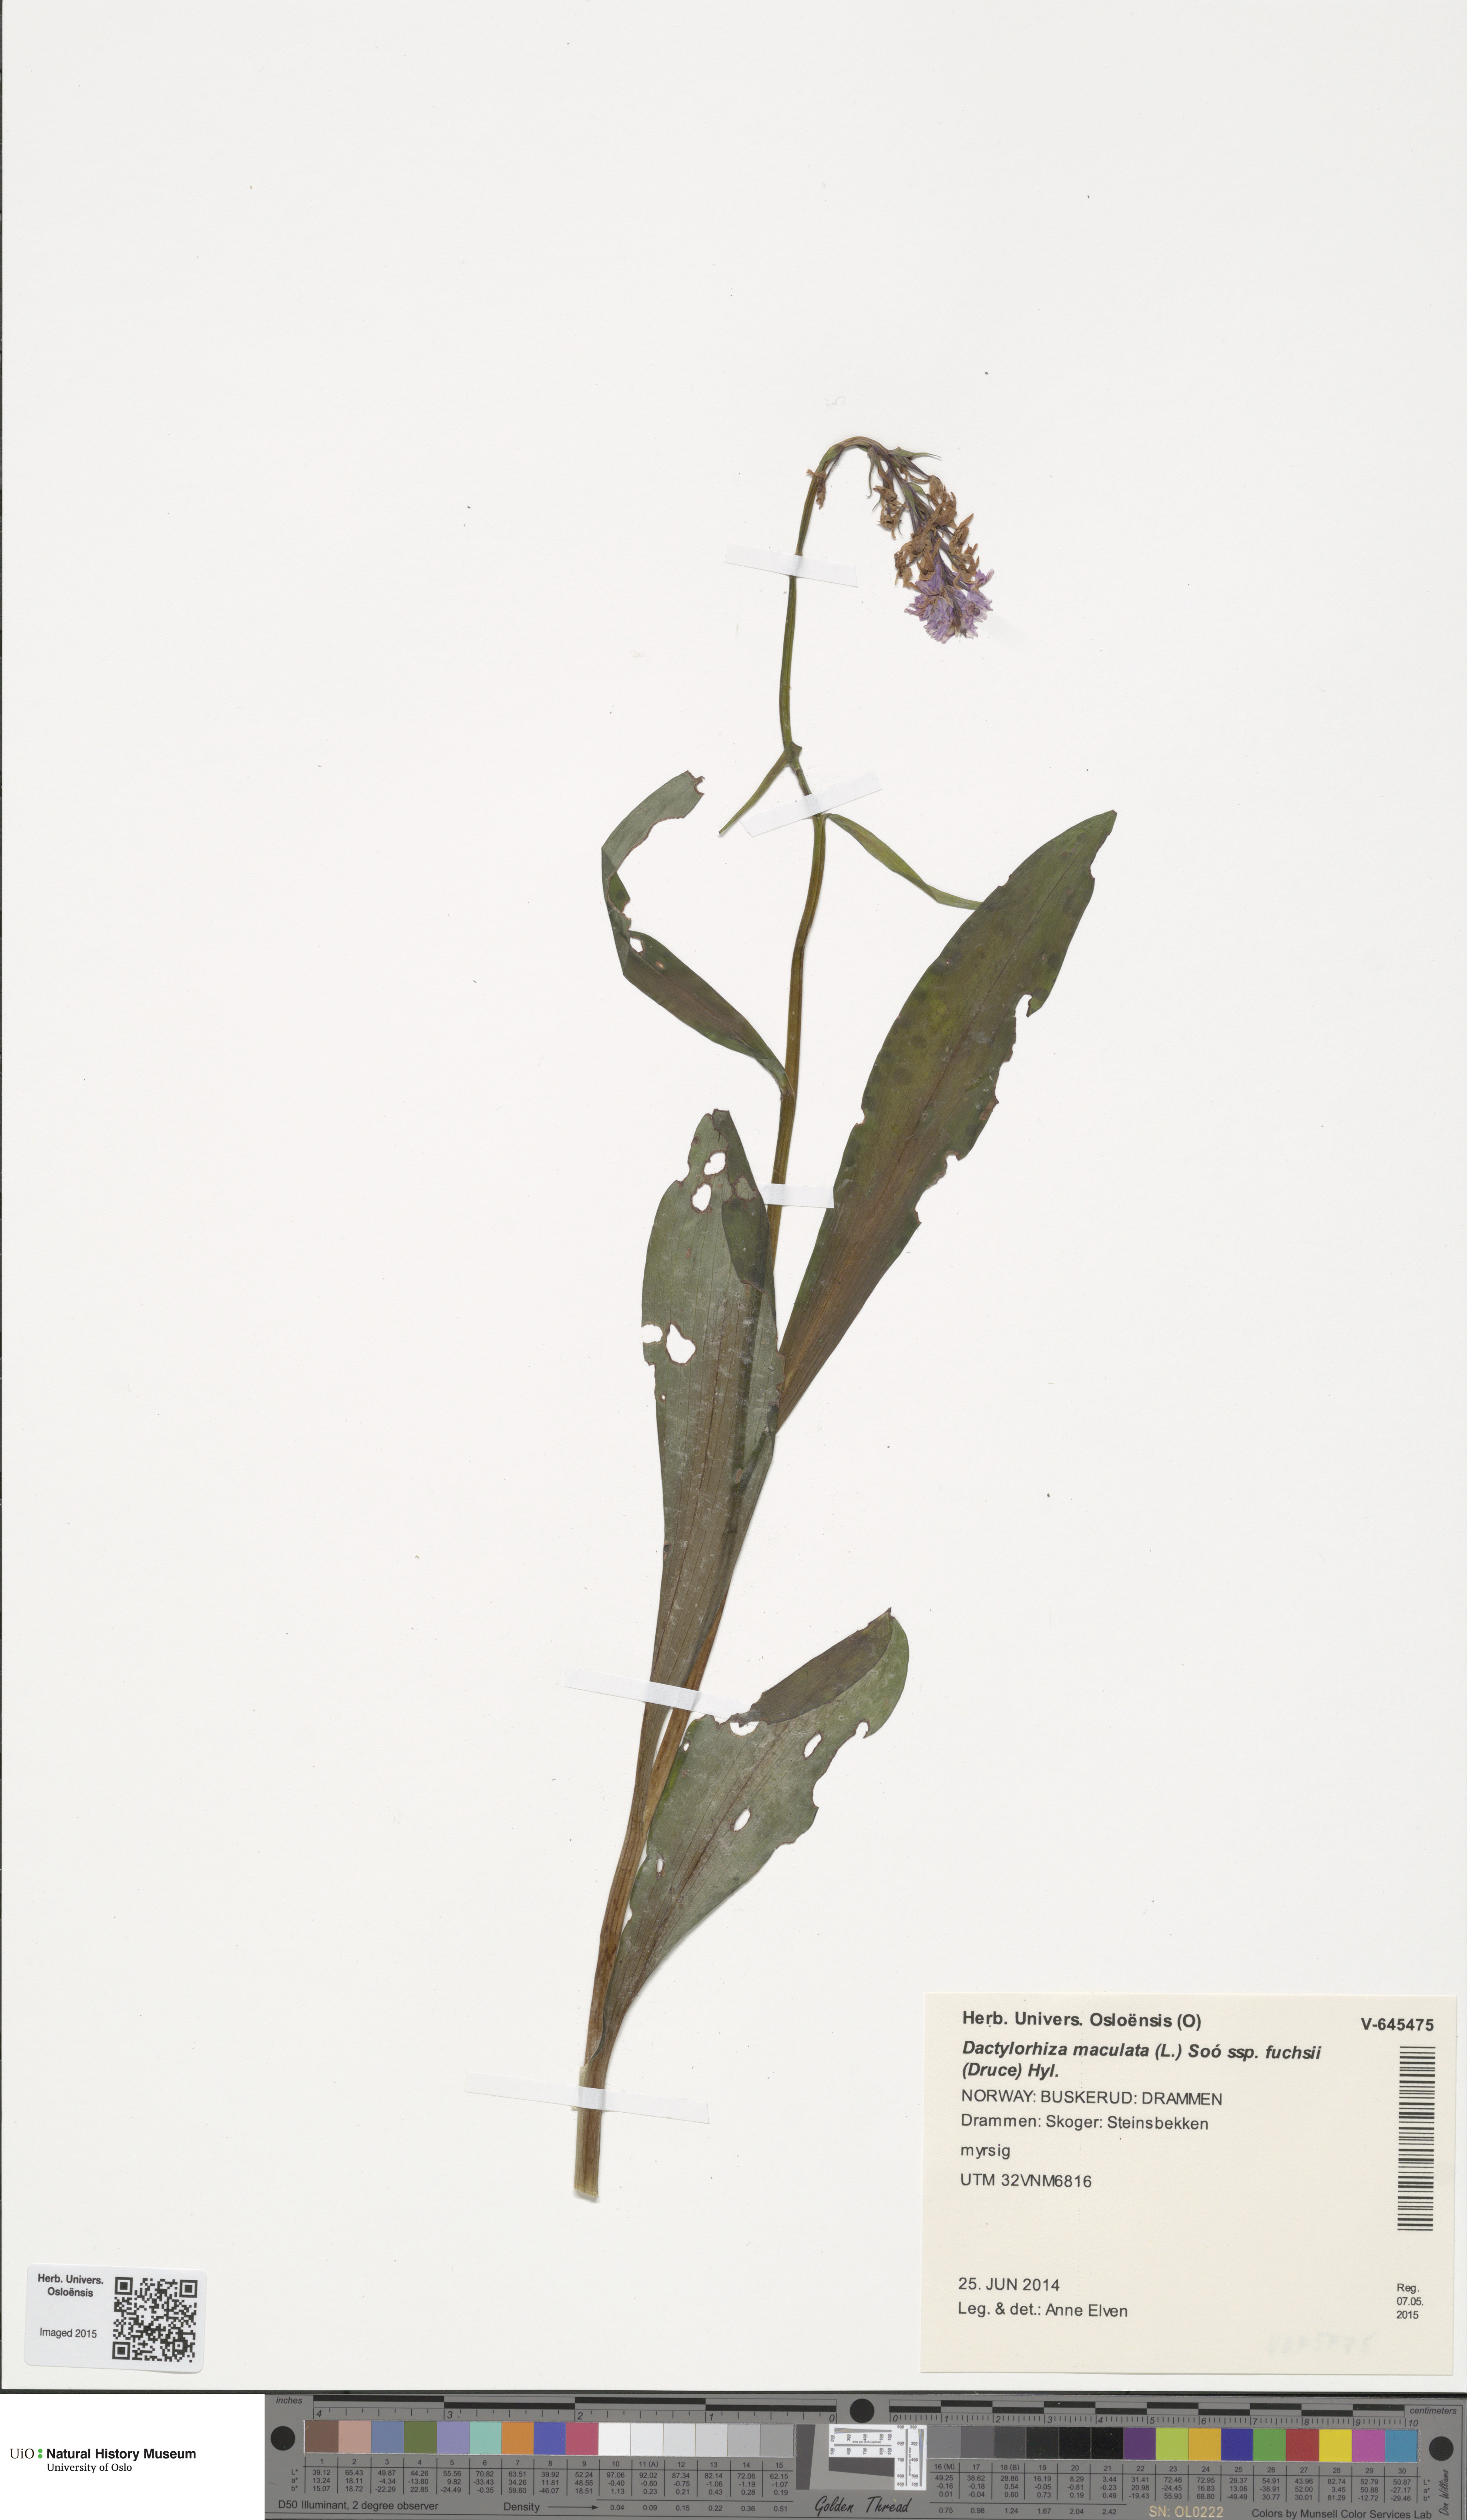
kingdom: Plantae
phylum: Tracheophyta
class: Liliopsida
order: Asparagales
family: Orchidaceae
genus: Dactylorhiza
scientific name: Dactylorhiza maculata
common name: Heath spotted-orchid
